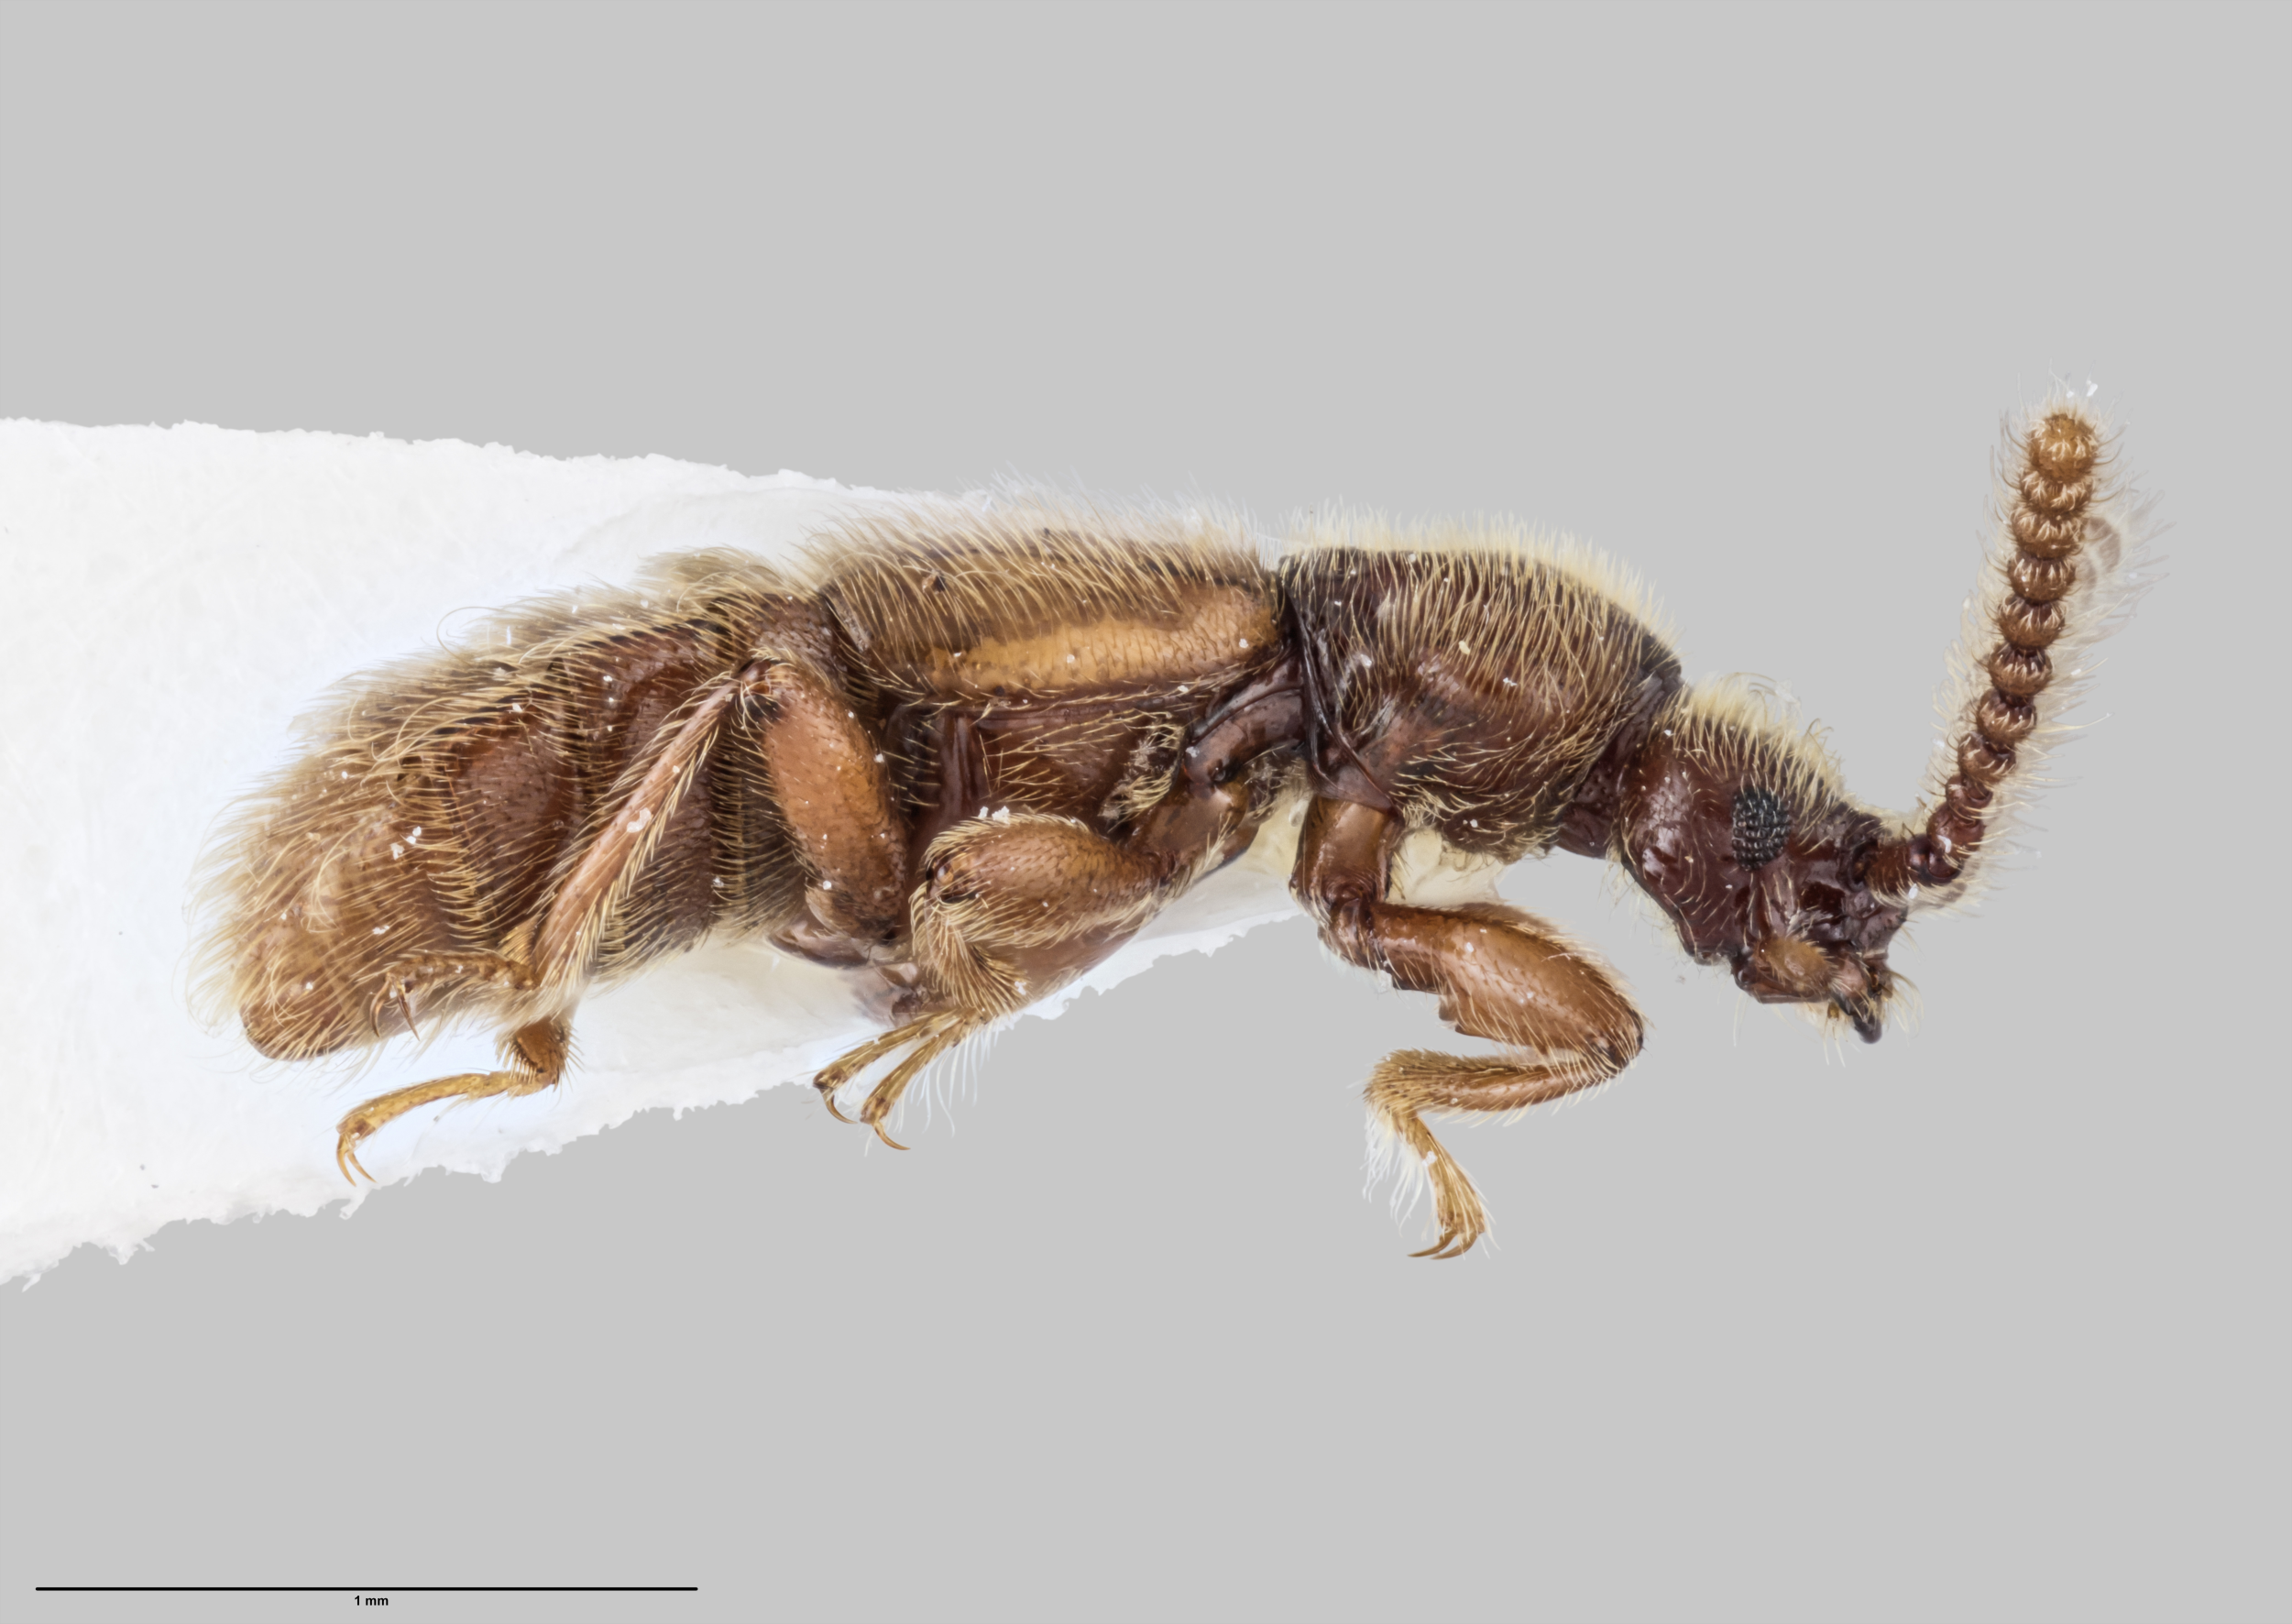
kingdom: Animalia
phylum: Arthropoda
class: Insecta
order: Coleoptera
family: Staphylinidae
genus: Sagola
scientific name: Sagola earlyi
